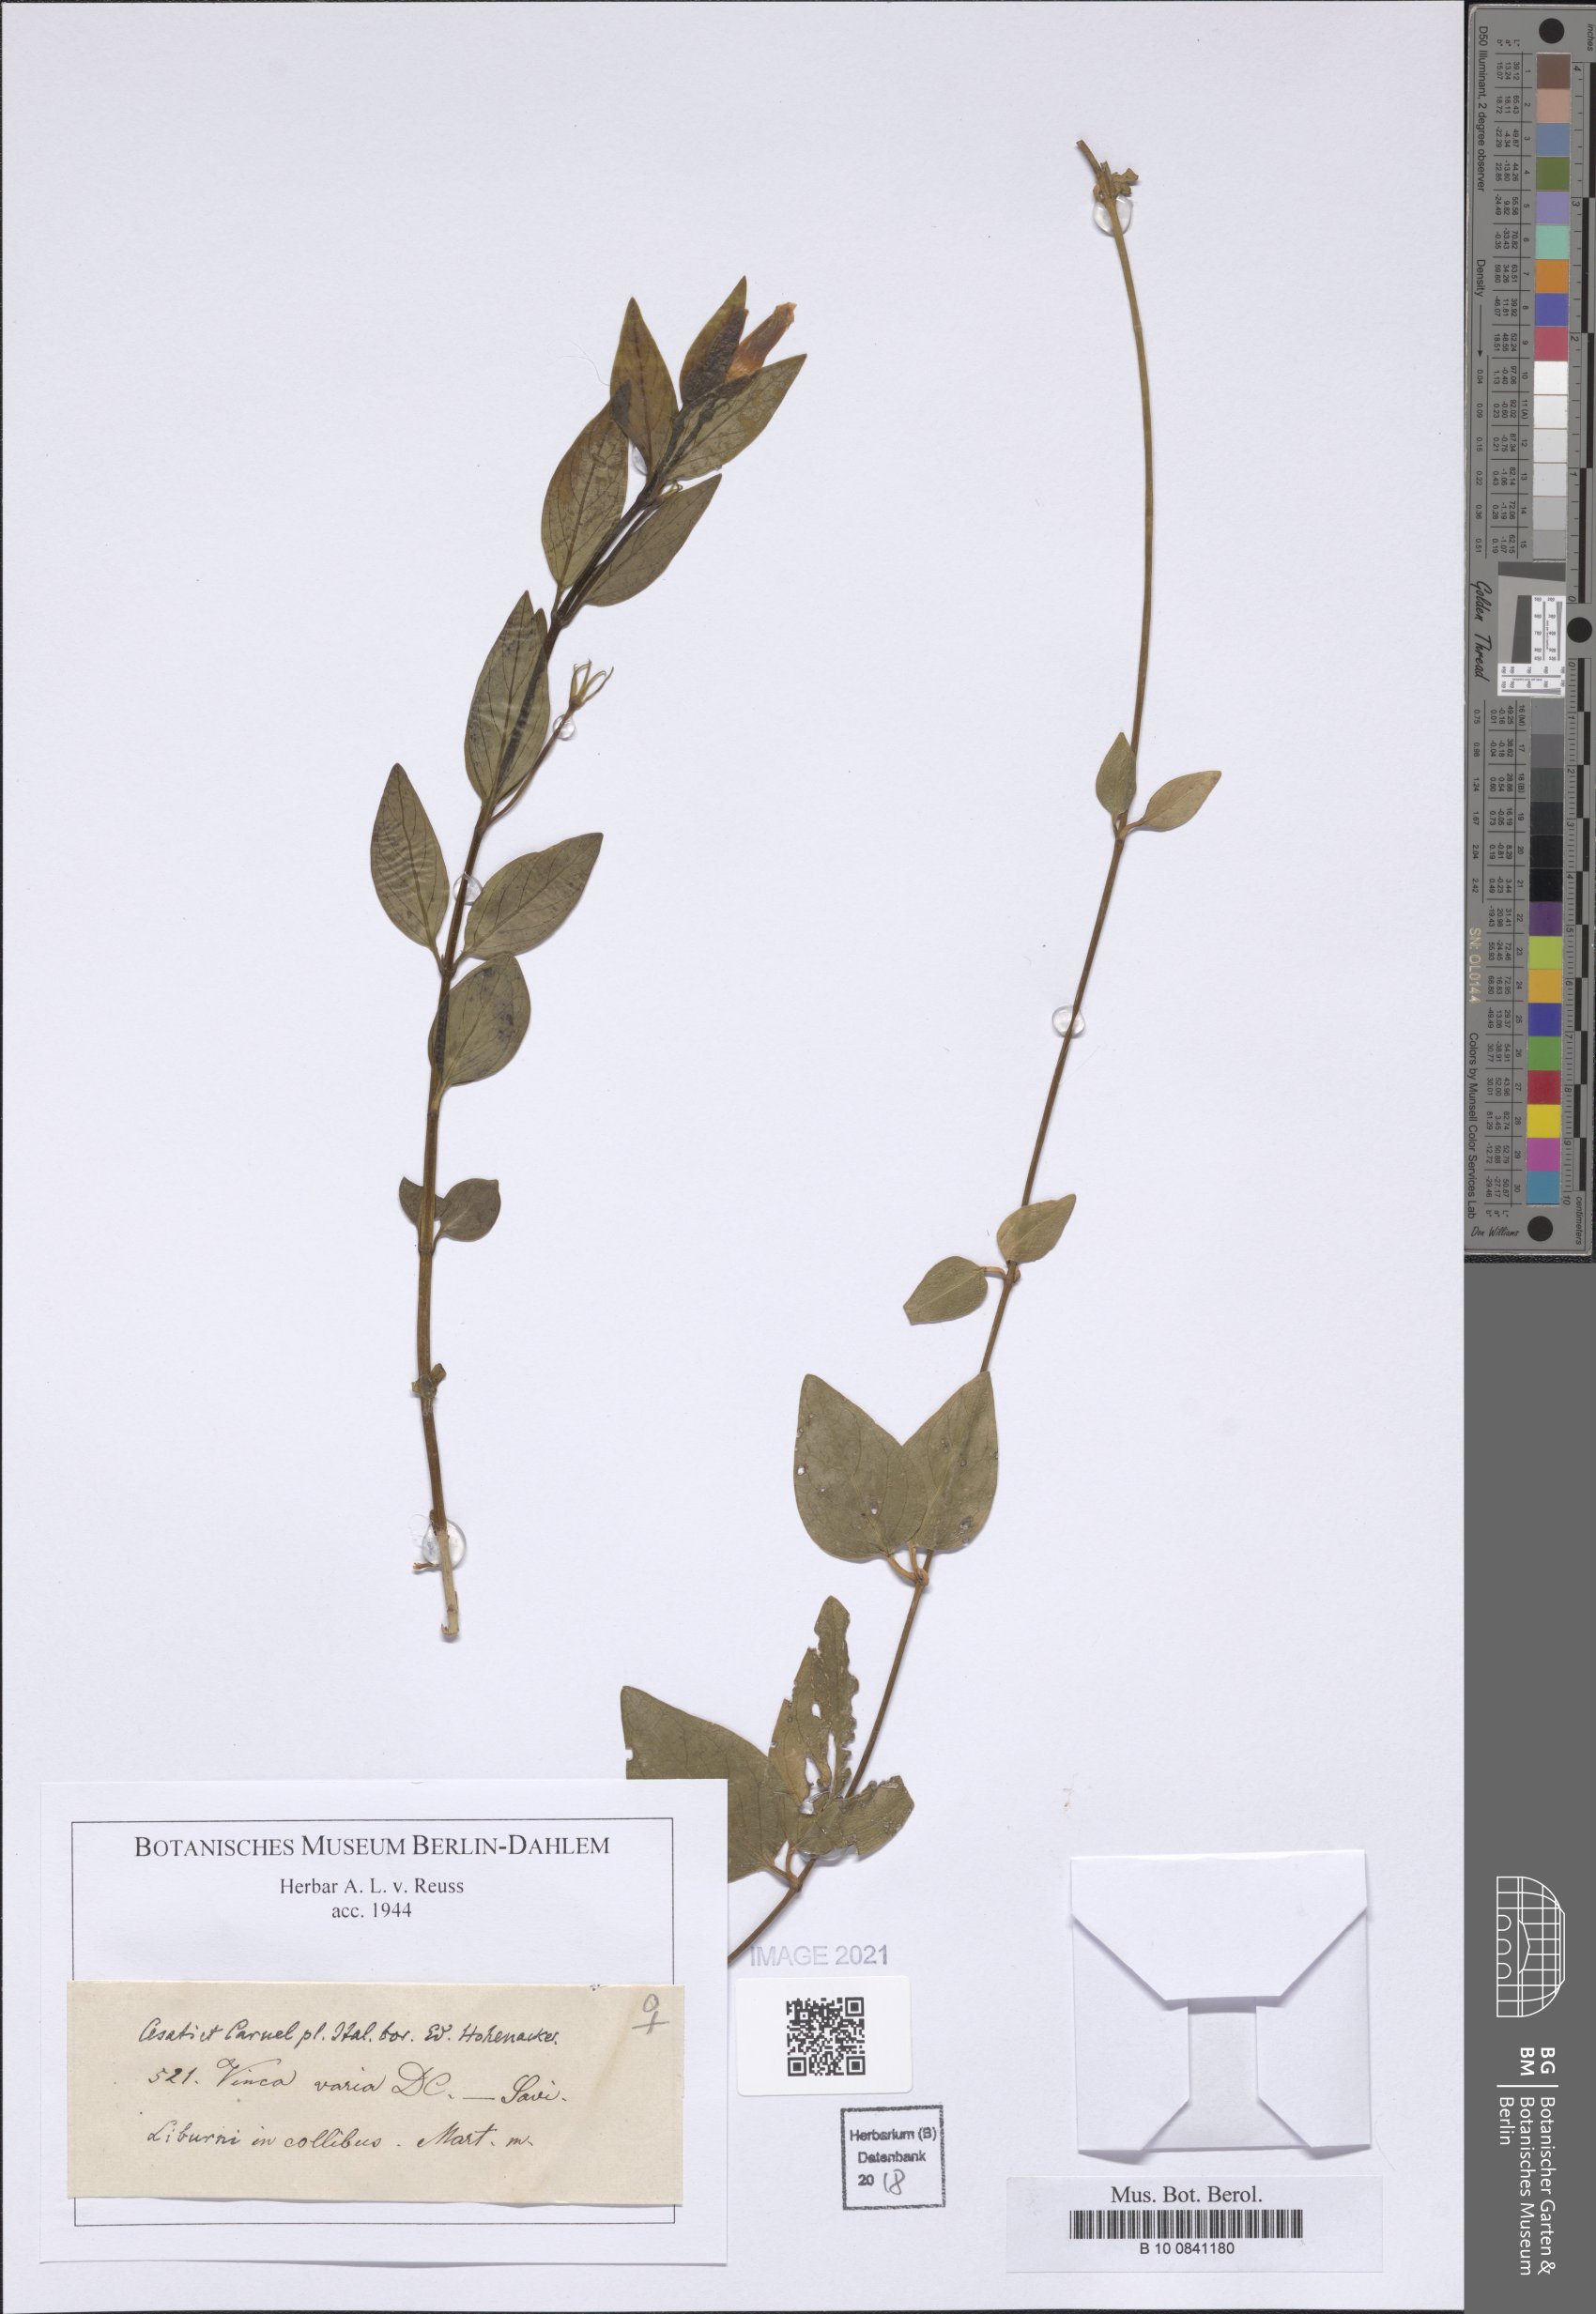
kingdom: Plantae
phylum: Tracheophyta
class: Magnoliopsida
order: Gentianales
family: Apocynaceae
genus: Vinca
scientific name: Vinca
